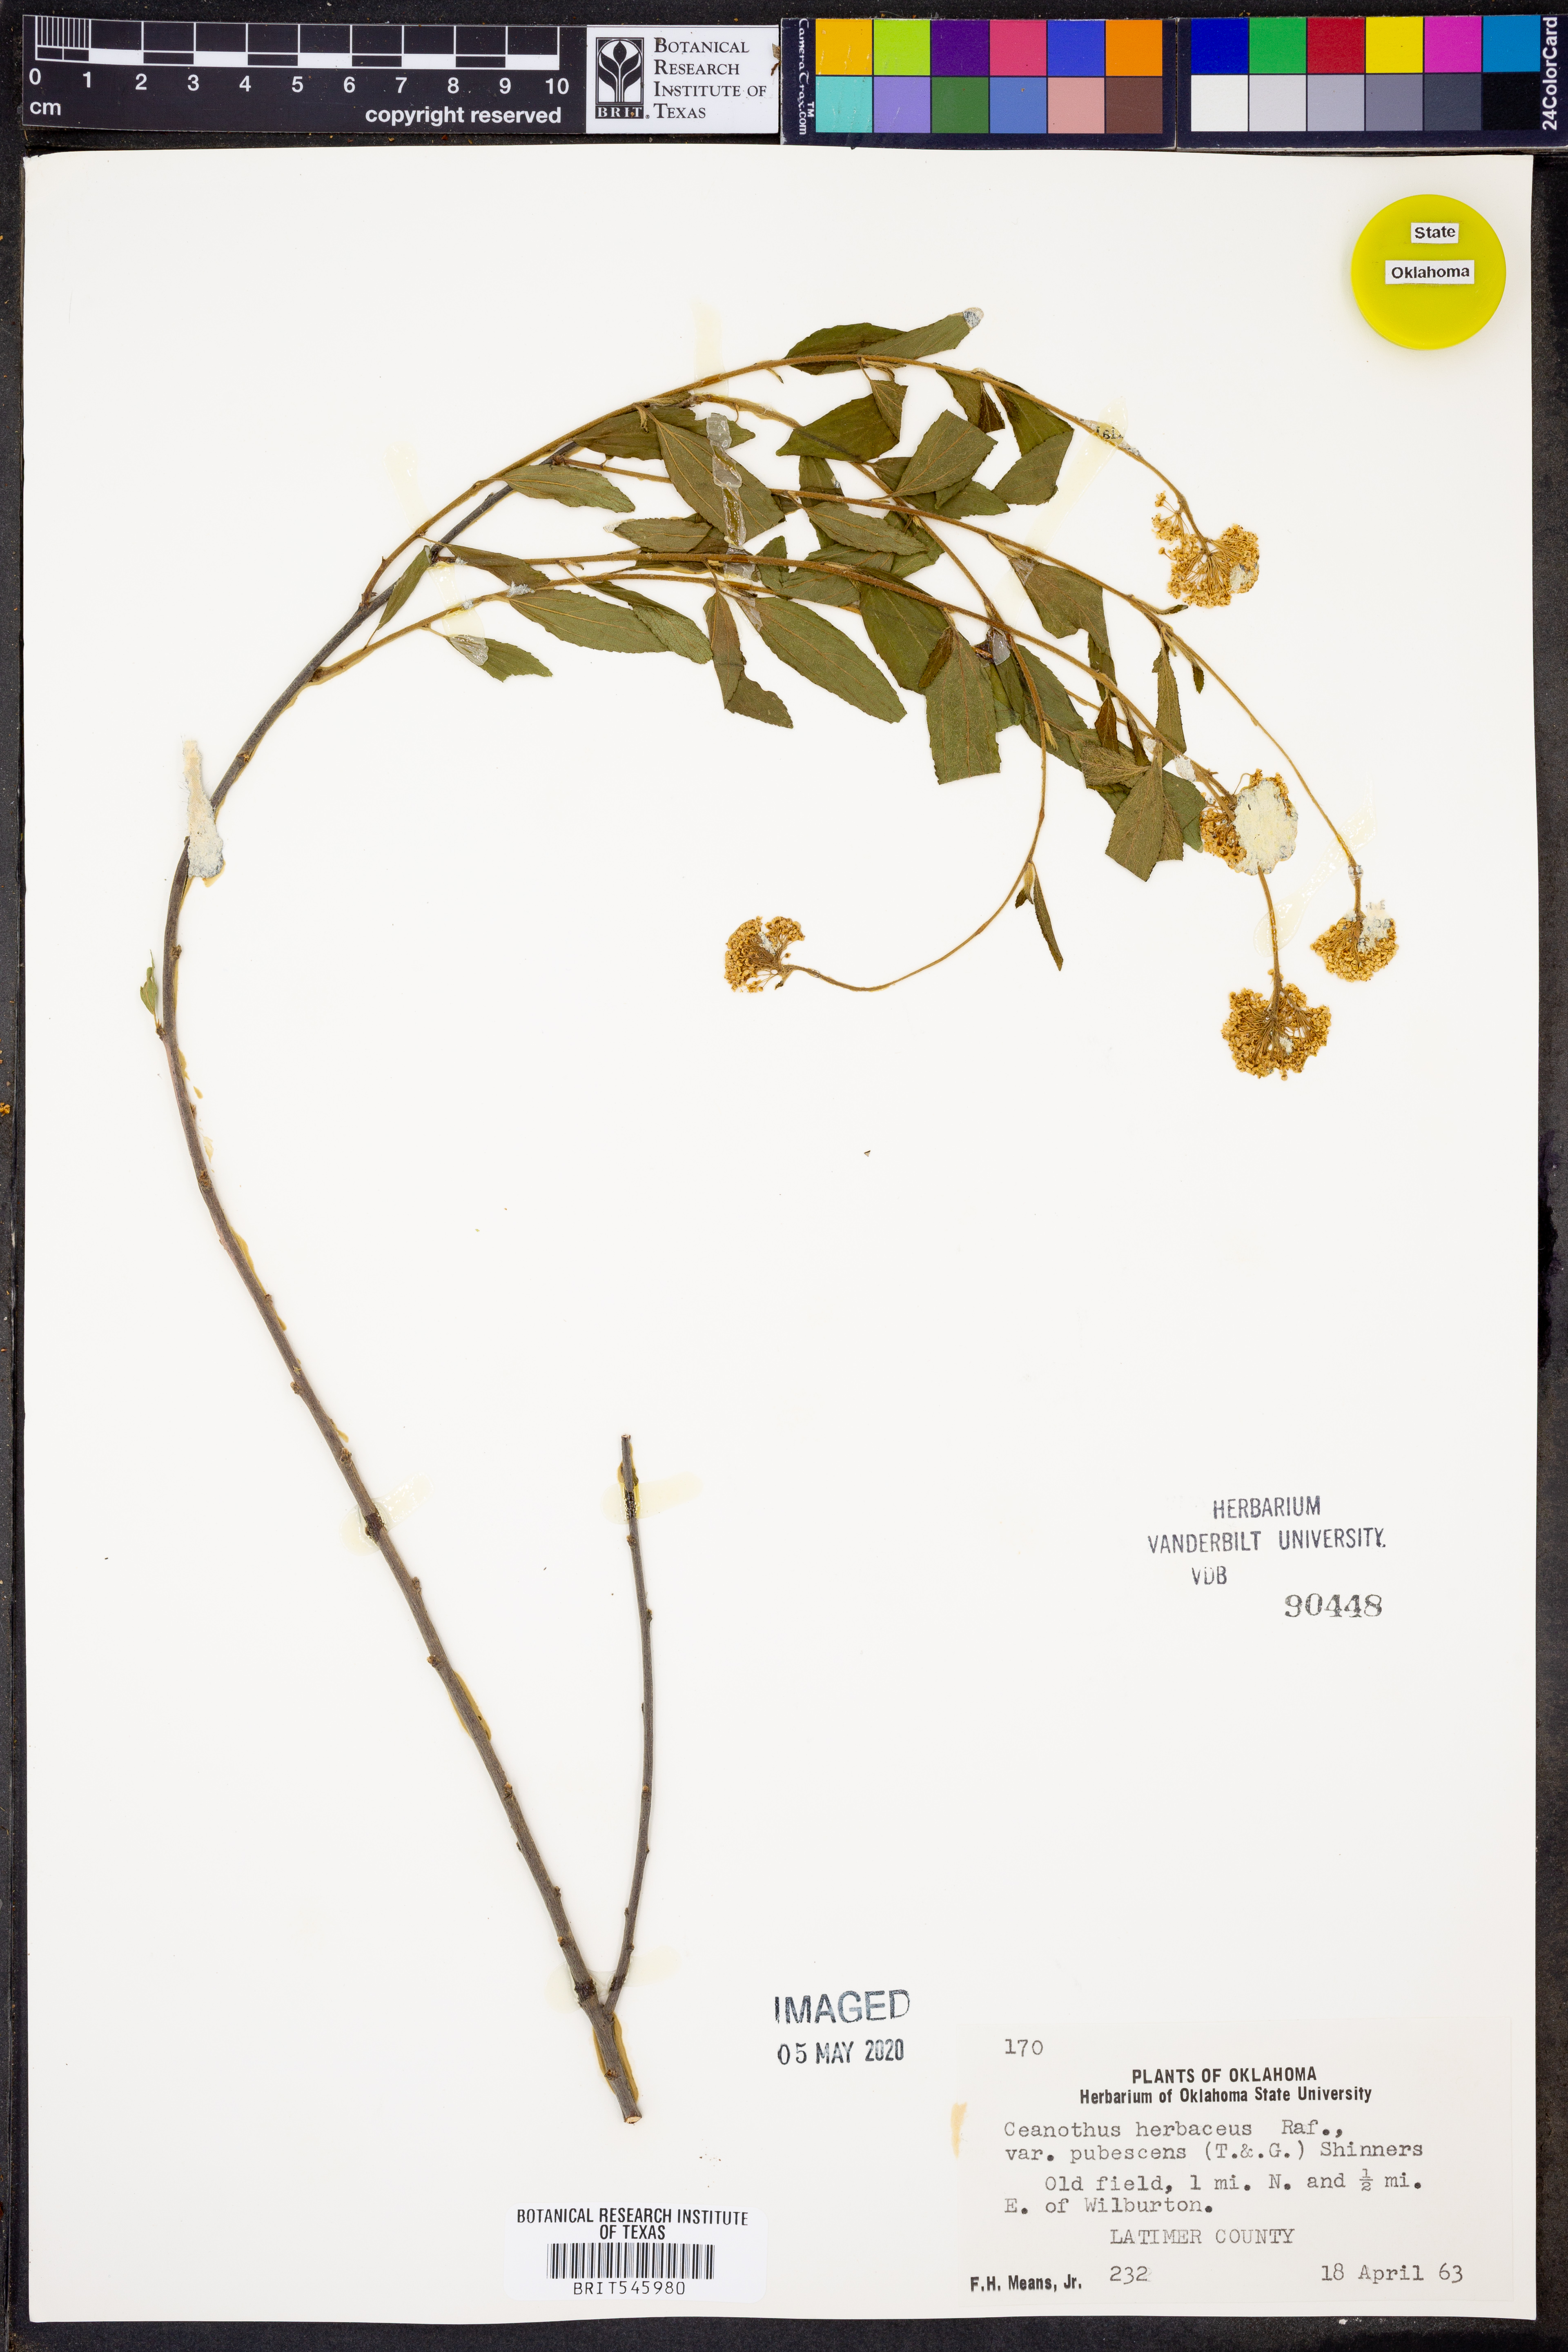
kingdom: Plantae
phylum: Tracheophyta
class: Magnoliopsida
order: Rosales
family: Rhamnaceae
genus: Ceanothus
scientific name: Ceanothus herbaceus
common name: Inland ceanothus
